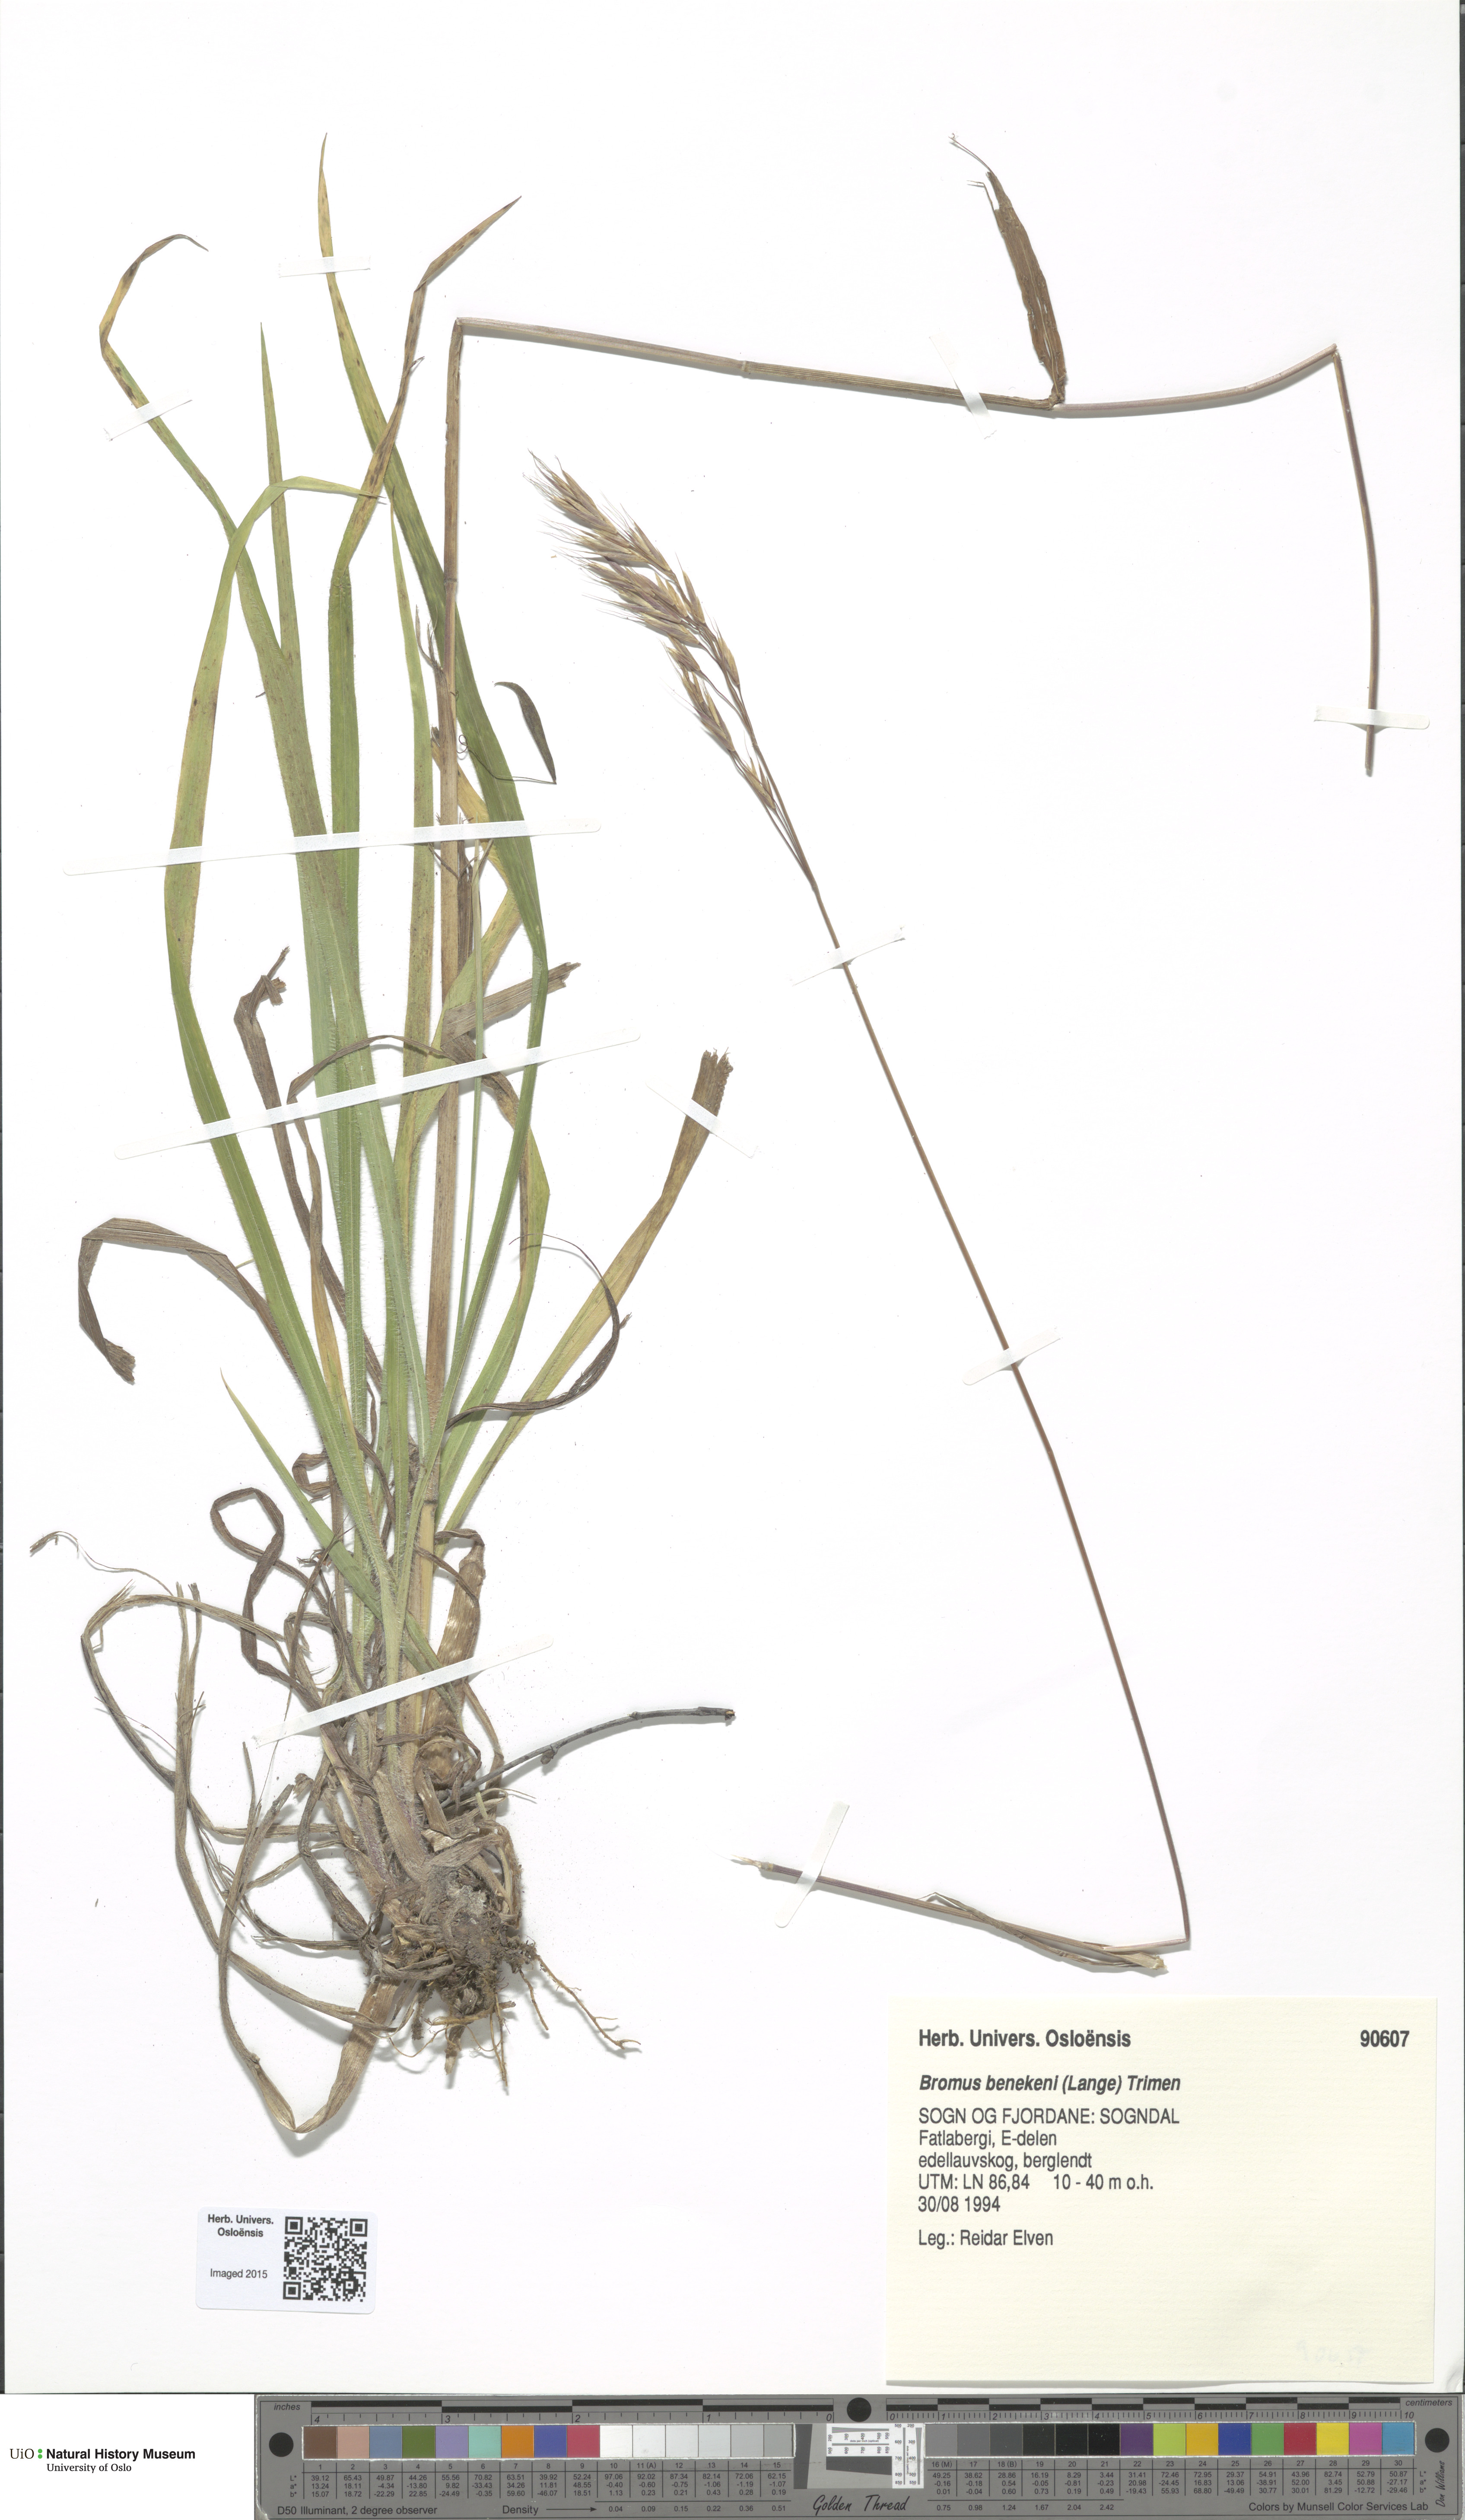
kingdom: Plantae
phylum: Tracheophyta
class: Liliopsida
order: Poales
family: Poaceae
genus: Bromus
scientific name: Bromus benekenii
